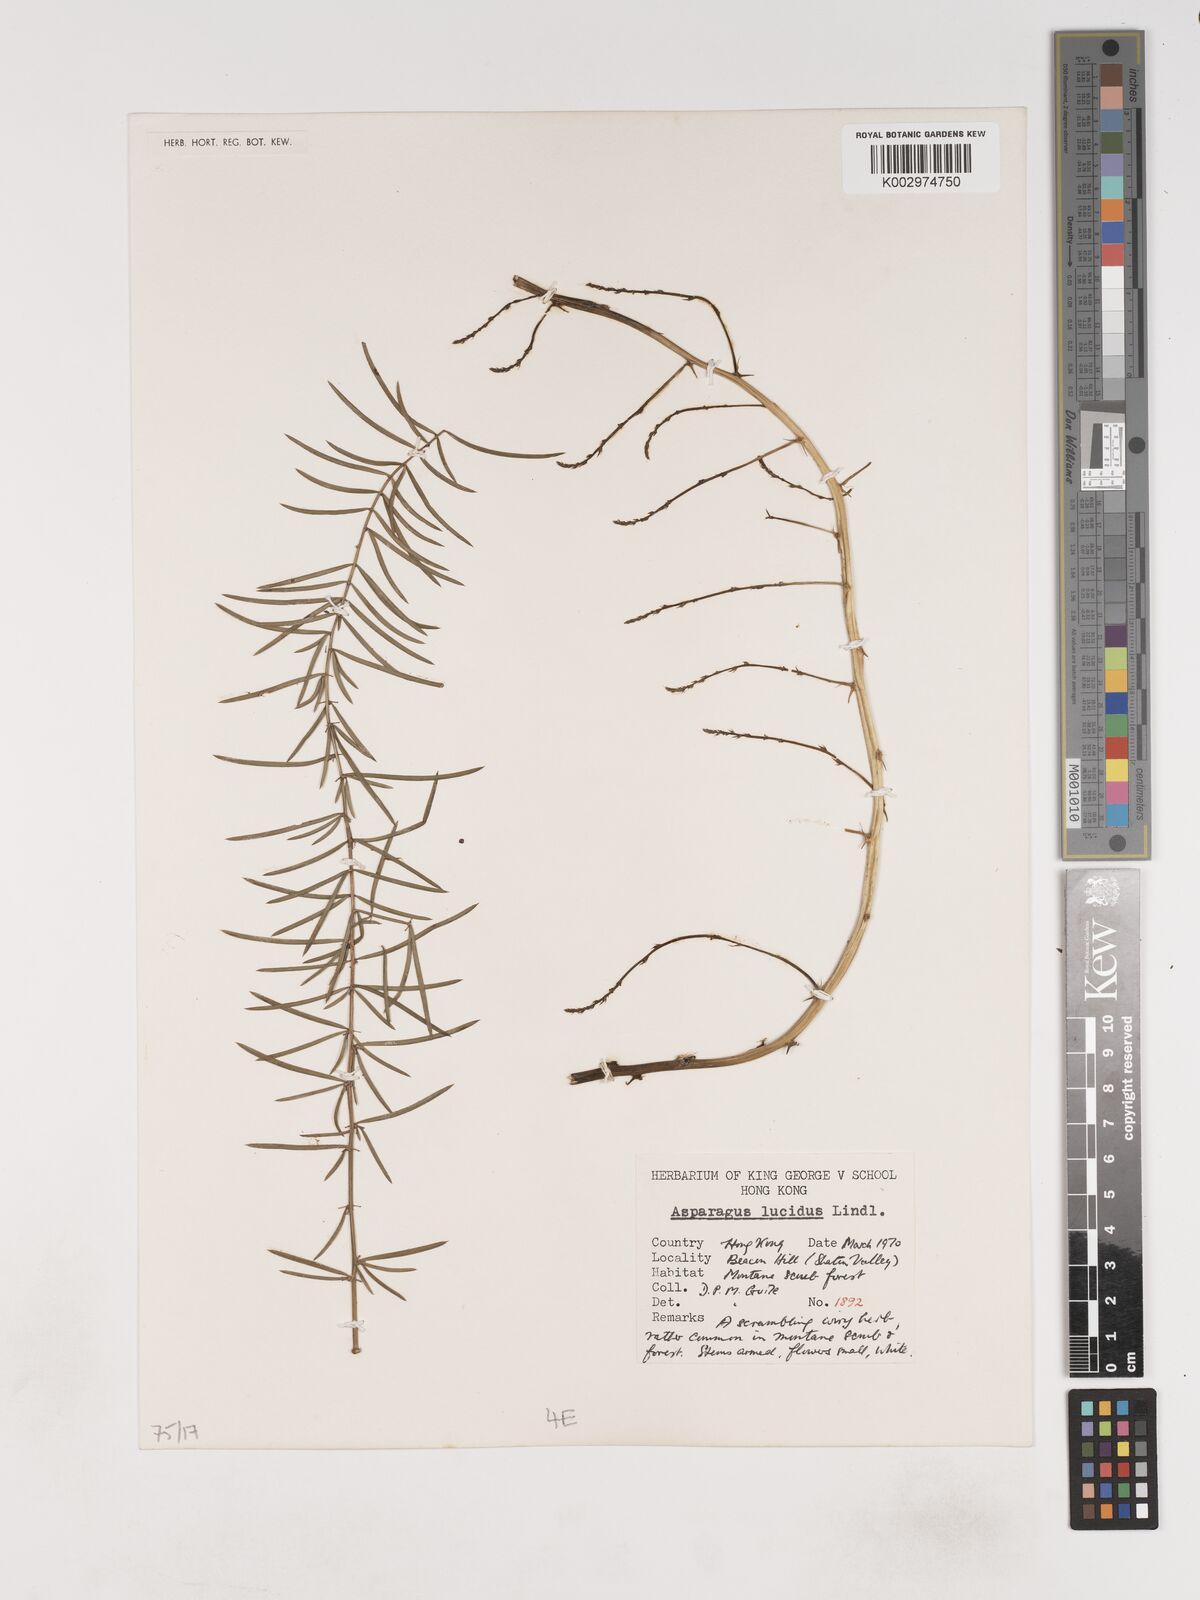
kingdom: Plantae
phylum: Tracheophyta
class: Liliopsida
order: Asparagales
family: Asparagaceae
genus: Asparagus
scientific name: Asparagus
